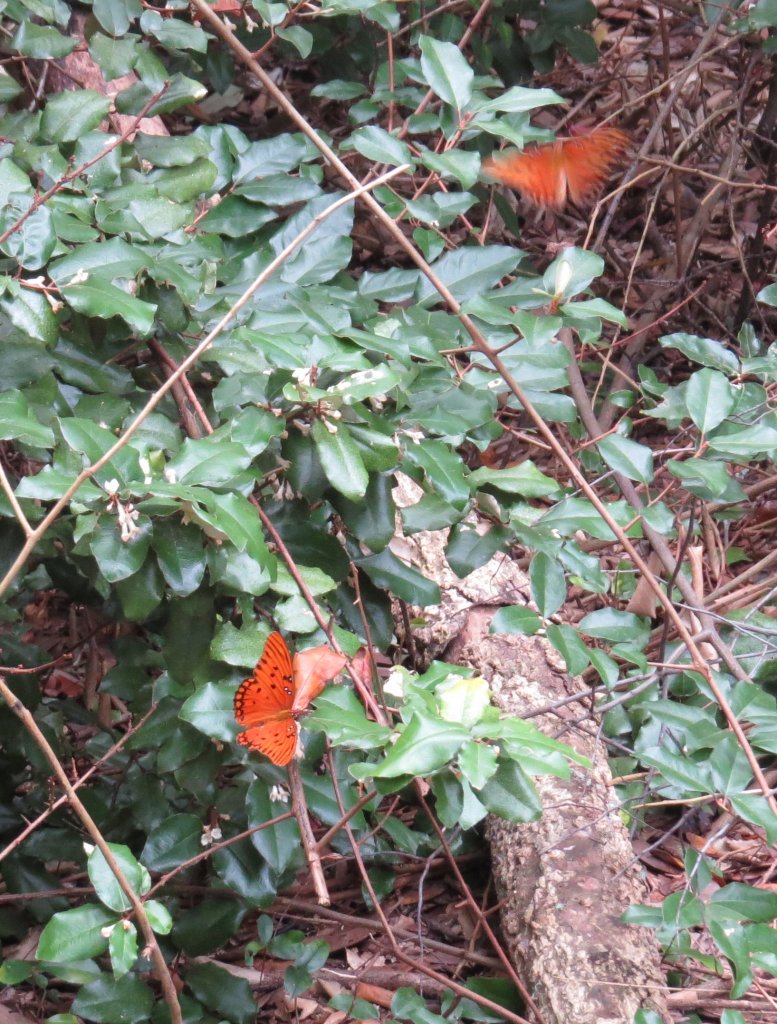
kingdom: Animalia
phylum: Arthropoda
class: Insecta
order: Lepidoptera
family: Nymphalidae
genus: Dione
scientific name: Dione vanillae
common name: Gulf Fritillary
